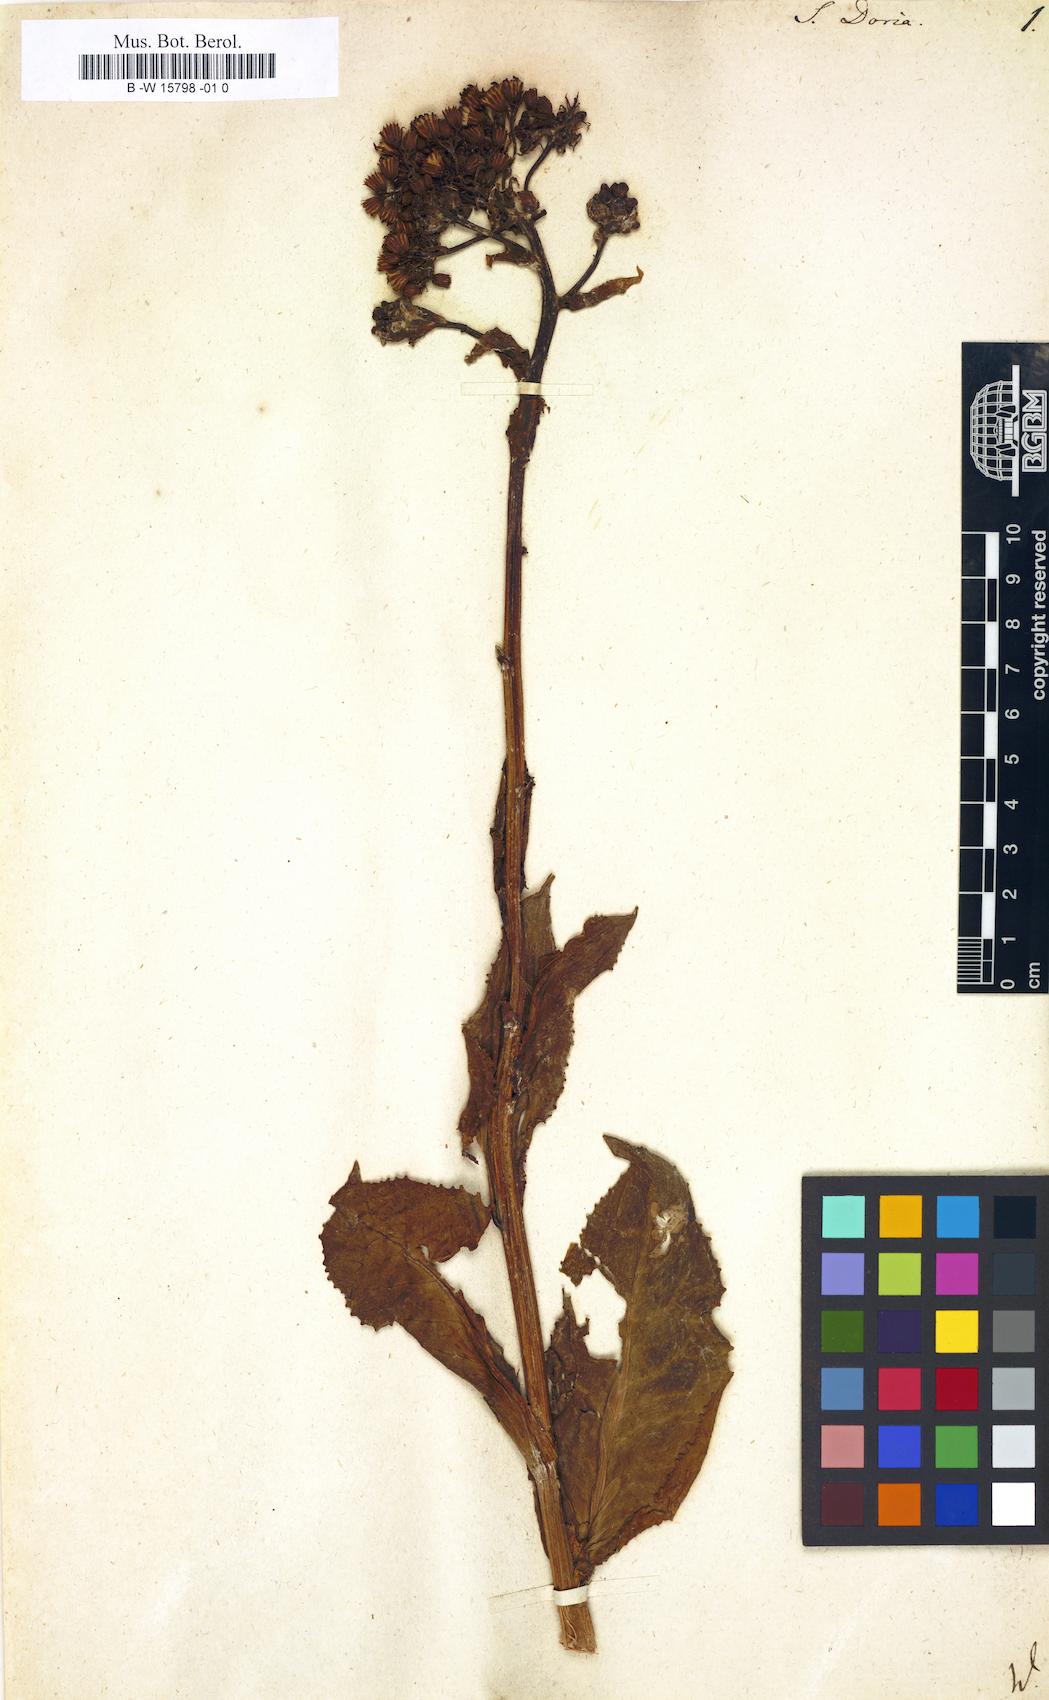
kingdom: Plantae
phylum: Tracheophyta
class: Magnoliopsida
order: Asterales
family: Asteraceae
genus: Senecio
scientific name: Senecio doria
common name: Golden ragwort
